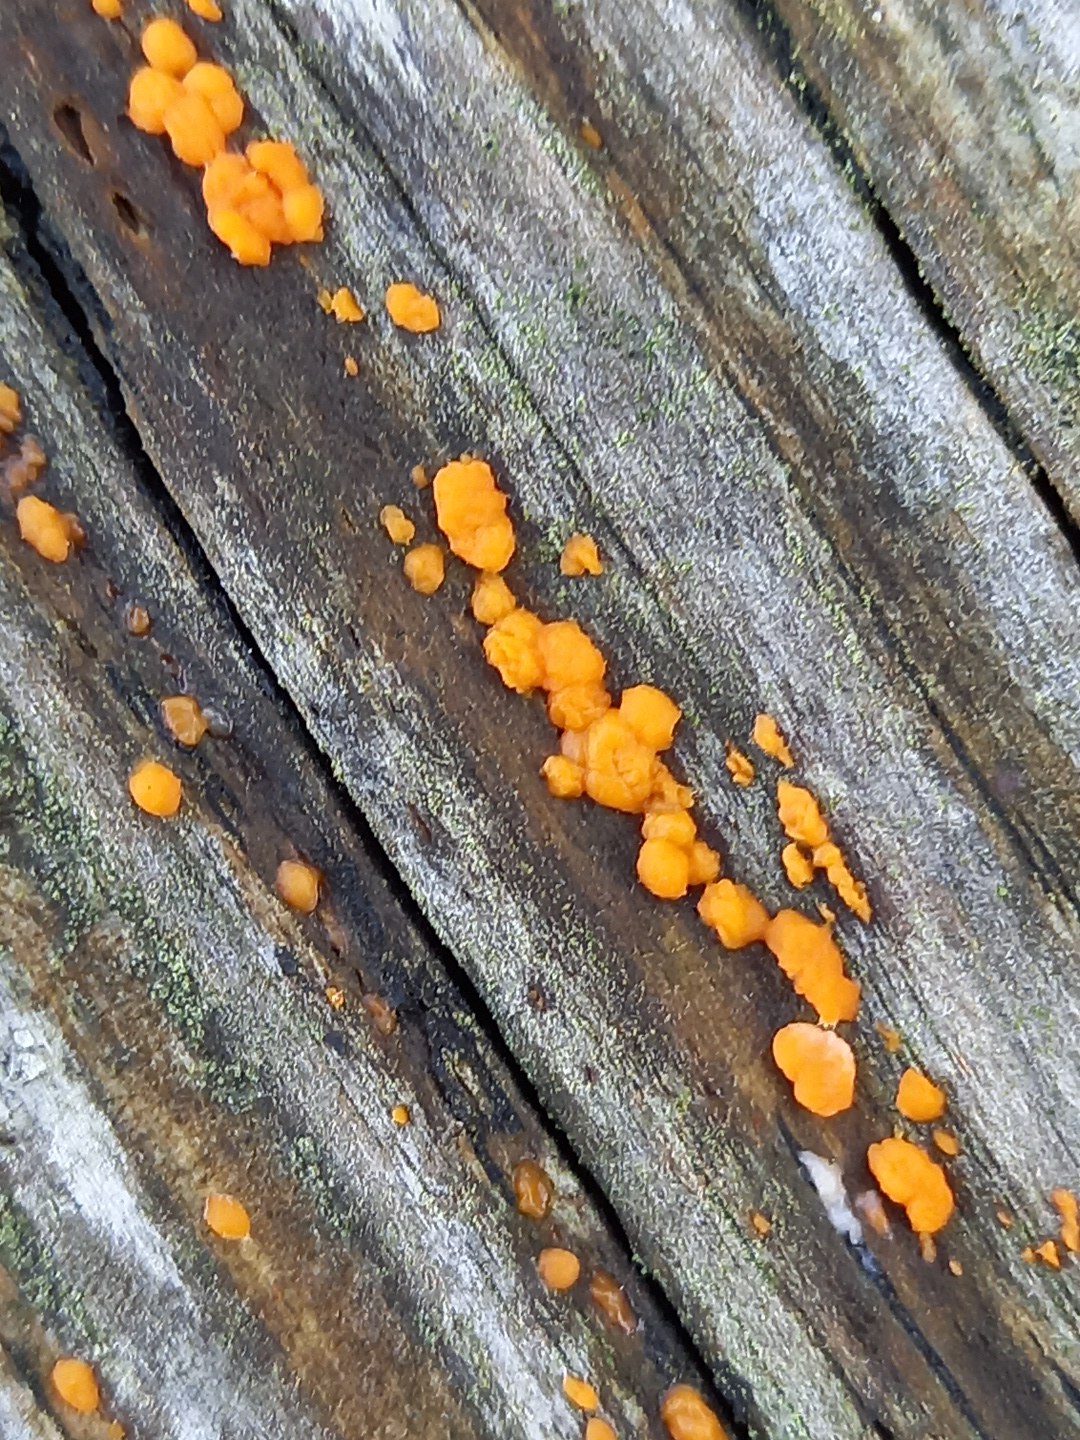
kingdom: Fungi
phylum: Basidiomycota
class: Dacrymycetes
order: Dacrymycetales
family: Dacrymycetaceae
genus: Dacrymyces
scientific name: Dacrymyces stillatus
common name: almindelig tåresvamp
